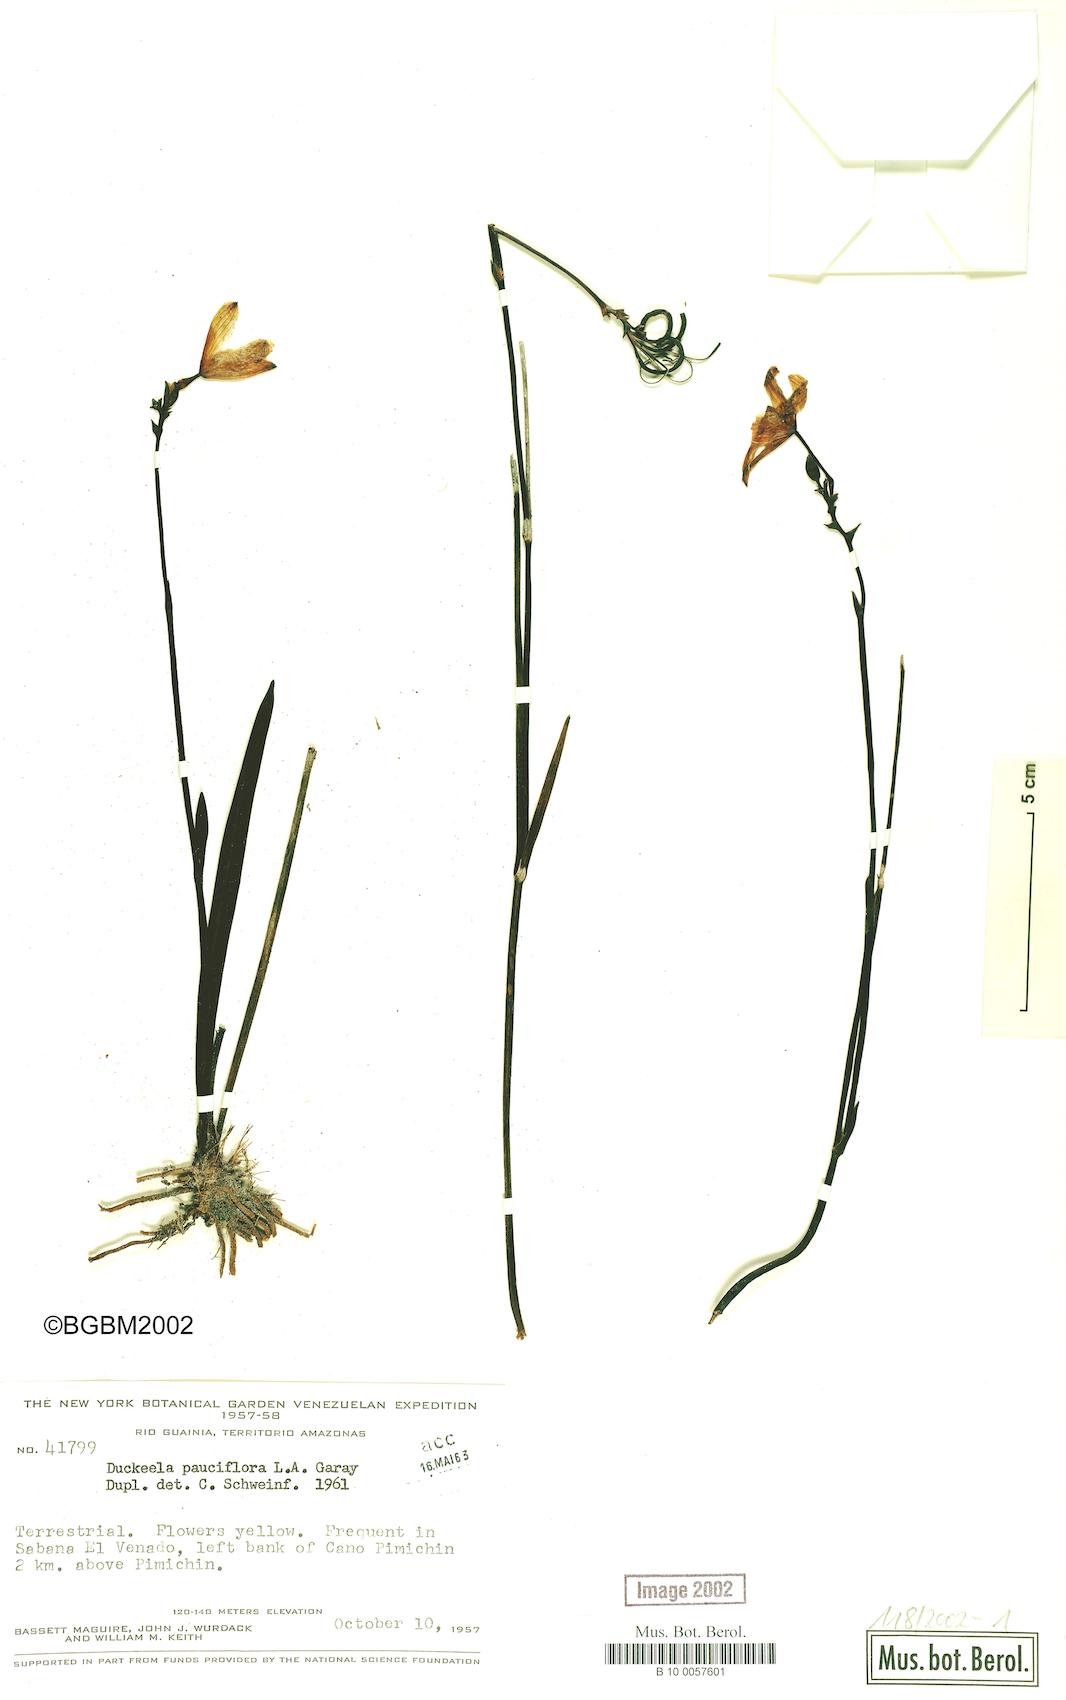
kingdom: Plantae
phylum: Tracheophyta
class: Liliopsida
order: Asparagales
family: Orchidaceae
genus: Duckeella
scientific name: Duckeella pauciflora
